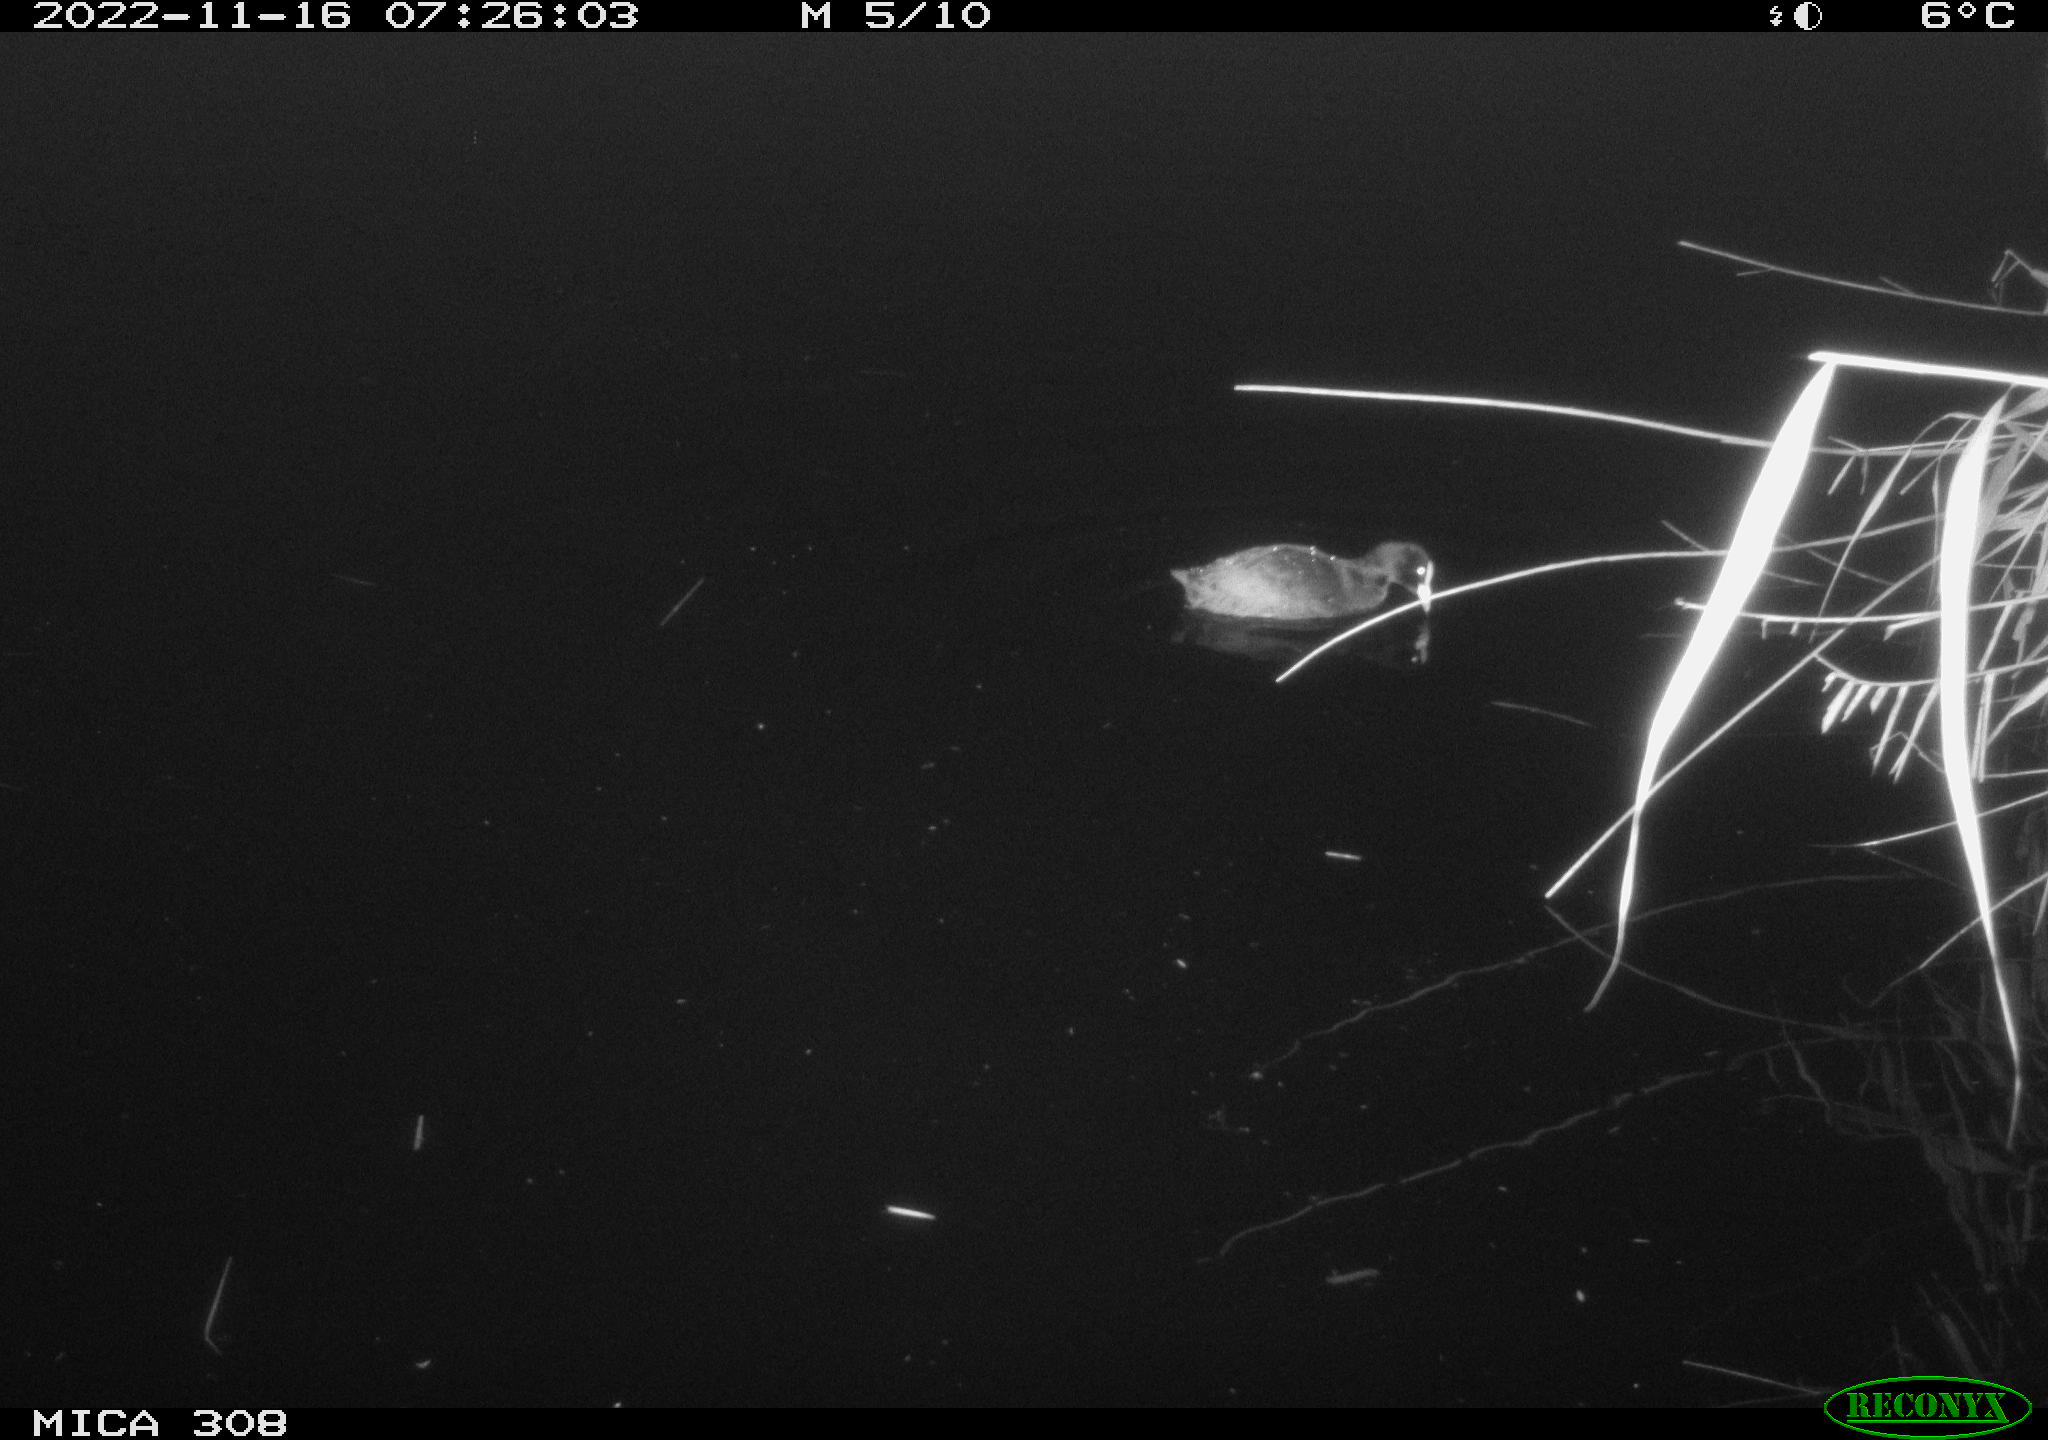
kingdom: Animalia
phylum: Chordata
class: Aves
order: Anseriformes
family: Anatidae
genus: Anas
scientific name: Anas
